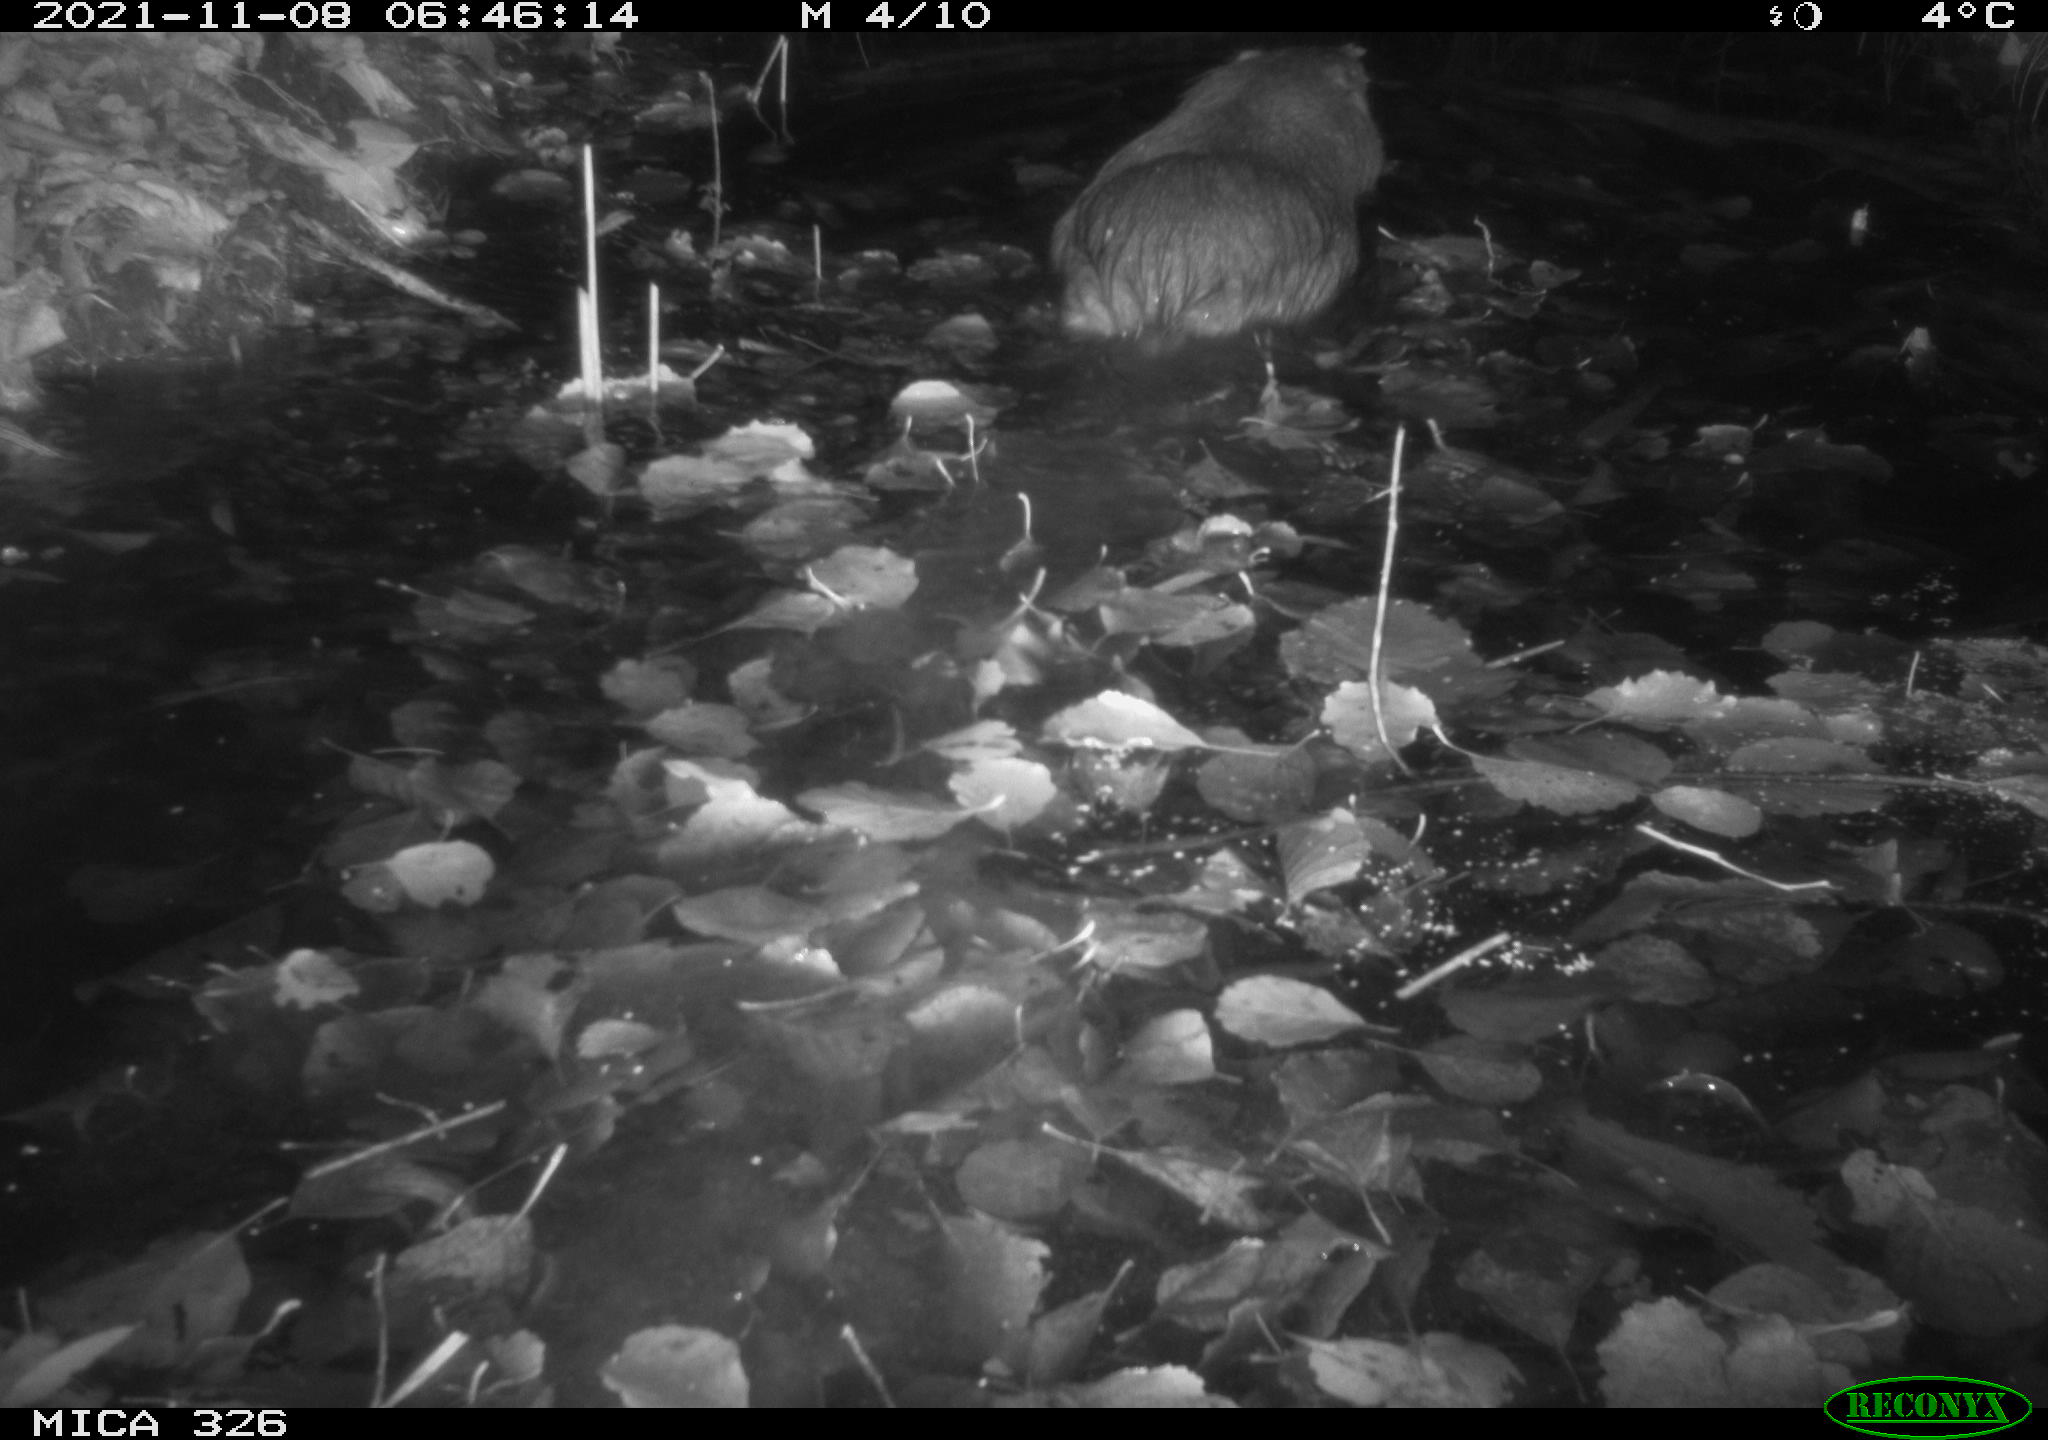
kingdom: Animalia
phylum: Chordata
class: Mammalia
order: Rodentia
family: Myocastoridae
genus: Myocastor
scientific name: Myocastor coypus
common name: Coypu
